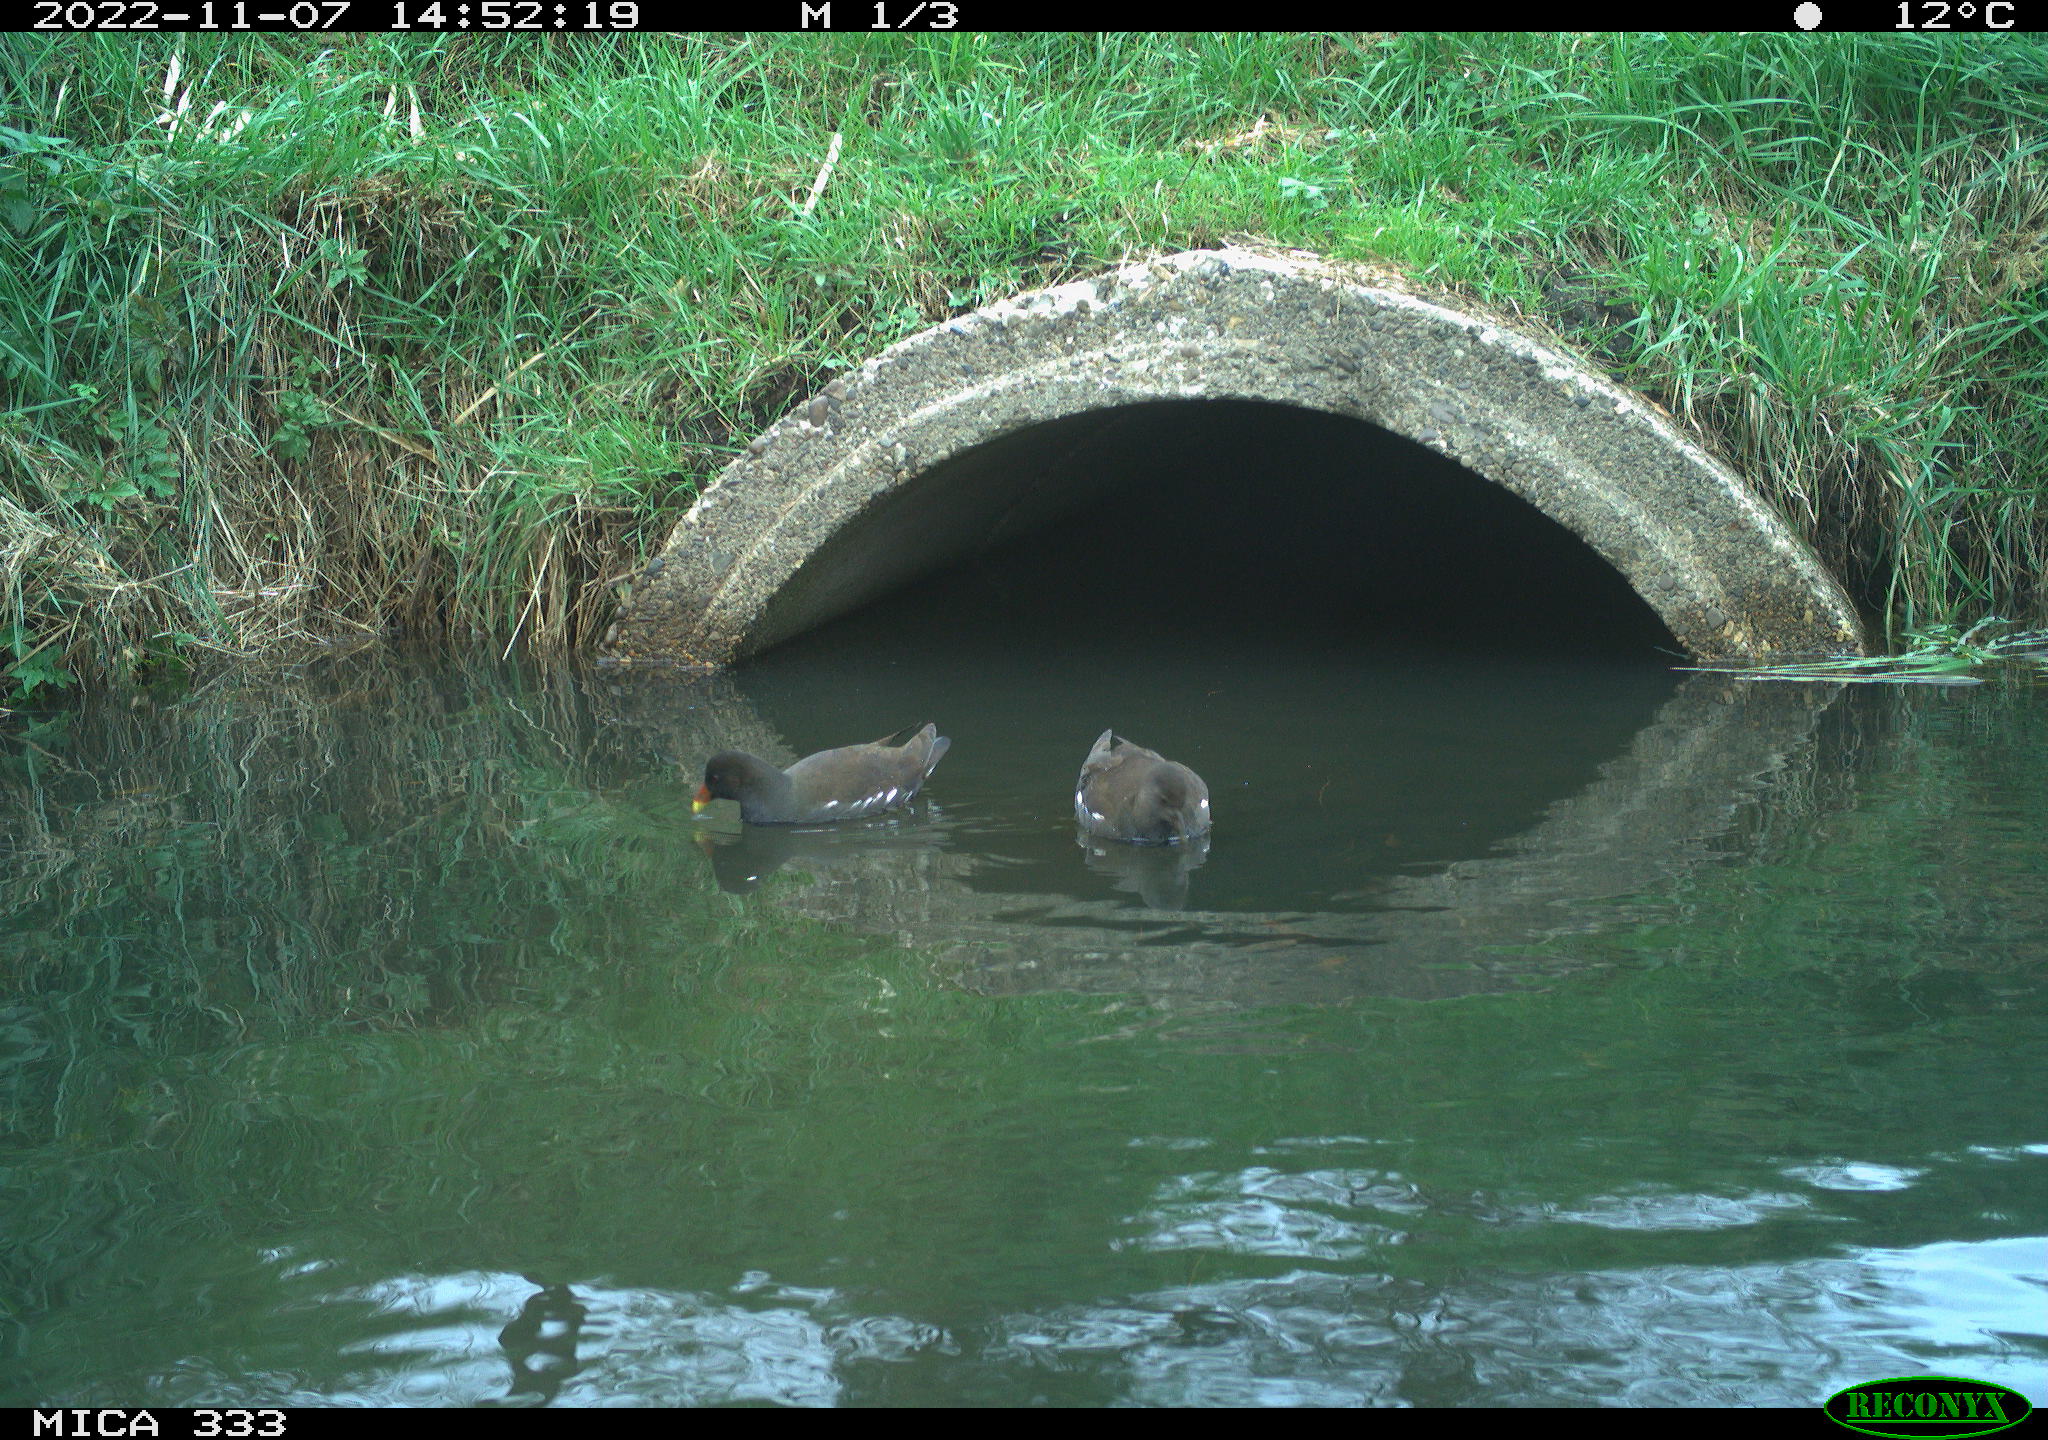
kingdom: Animalia
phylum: Chordata
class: Aves
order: Gruiformes
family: Rallidae
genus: Gallinula
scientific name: Gallinula chloropus
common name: Common moorhen
